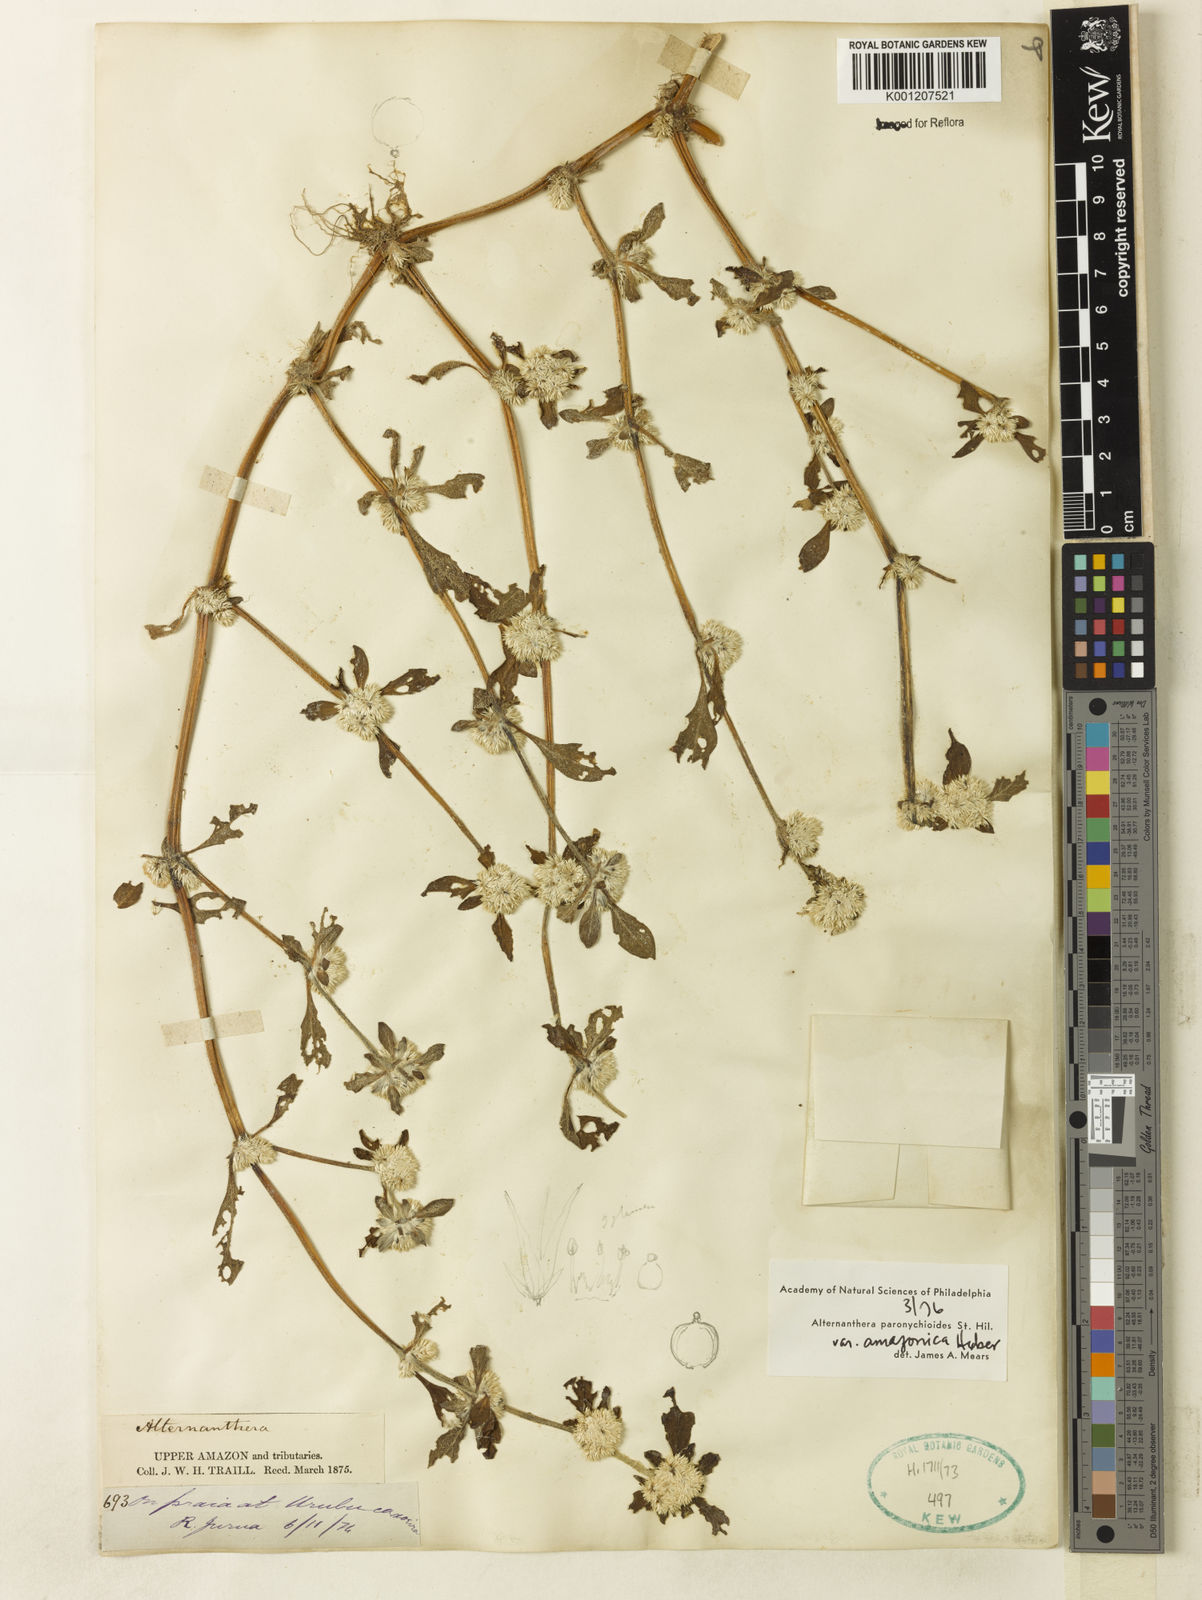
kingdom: Plantae
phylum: Tracheophyta
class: Magnoliopsida
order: Caryophyllales
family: Amaranthaceae
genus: Alternanthera
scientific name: Alternanthera paronychioides
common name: Smooth joyweed
